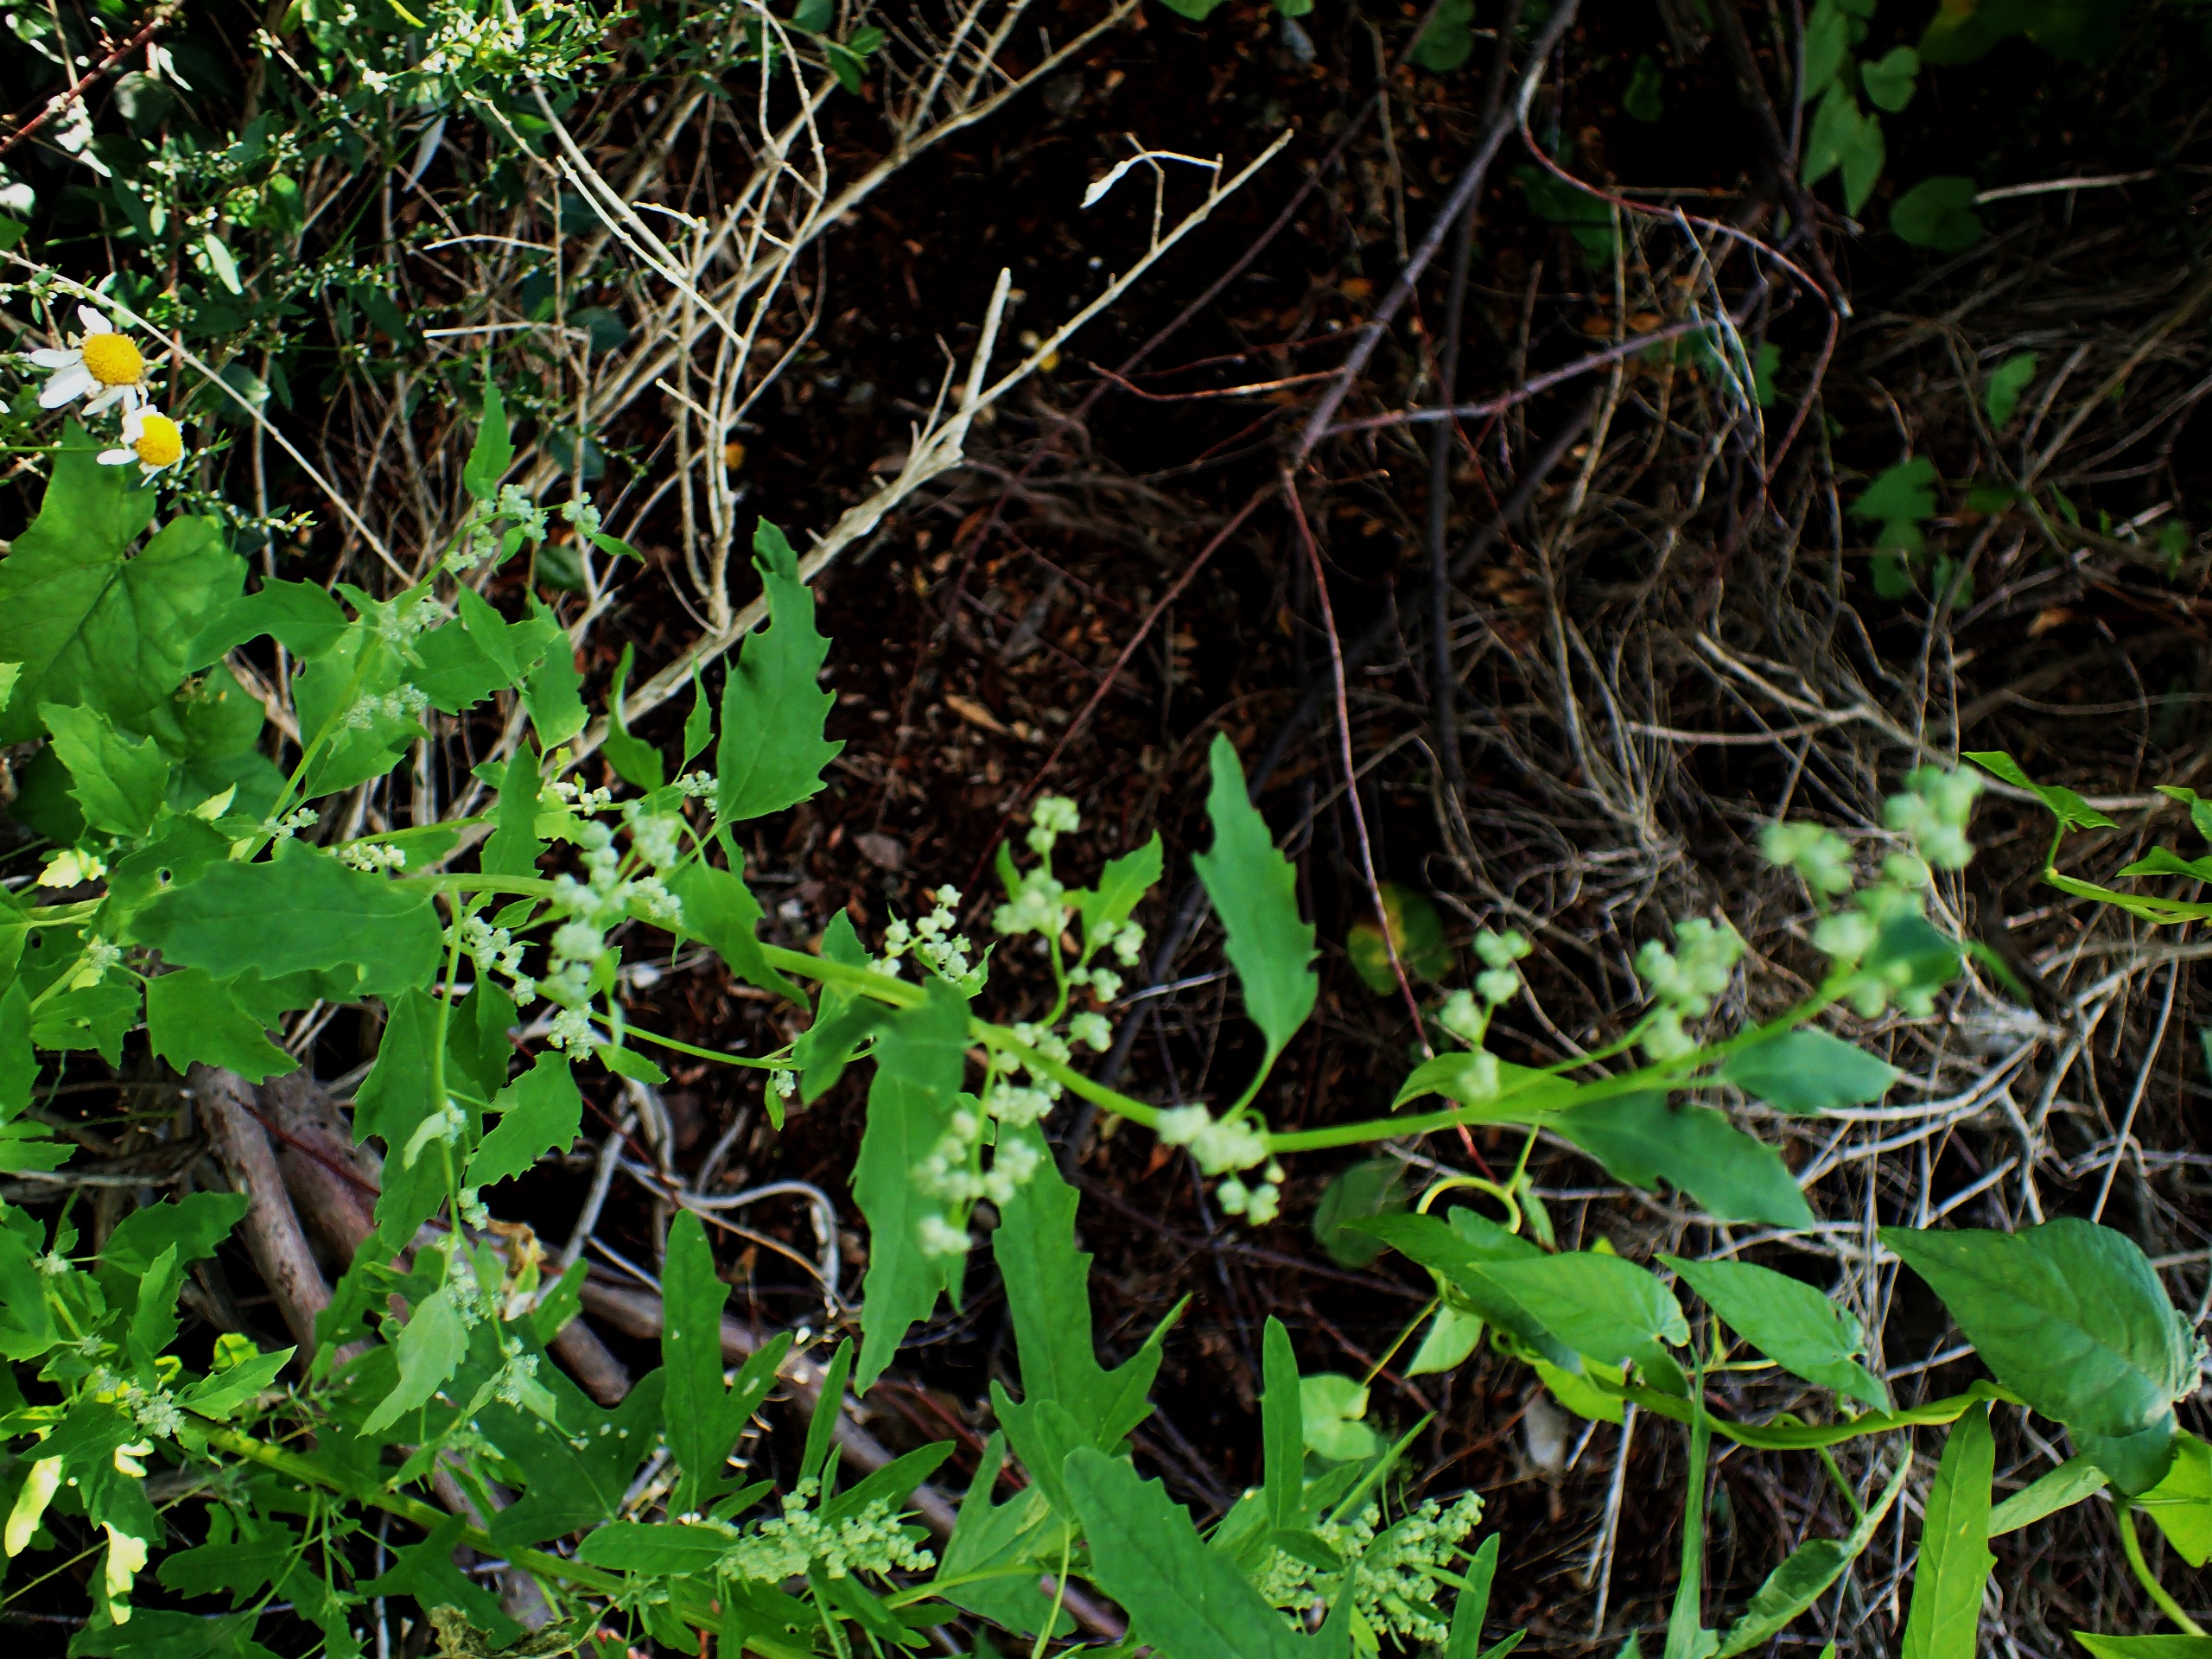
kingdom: Plantae
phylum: Tracheophyta
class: Magnoliopsida
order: Caryophyllales
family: Amaranthaceae
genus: Chenopodium
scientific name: Chenopodium ficifolium
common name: Figenbladet gåsefod
